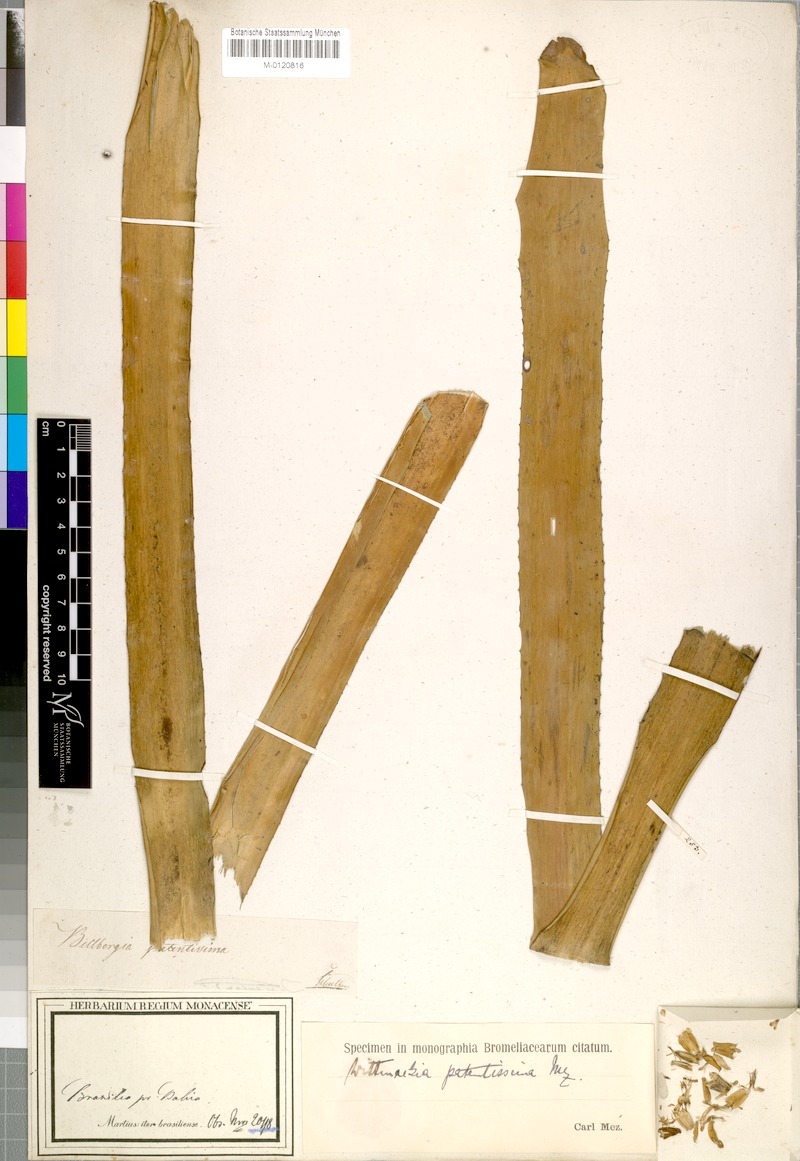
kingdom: Plantae
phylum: Tracheophyta
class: Liliopsida
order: Poales
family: Bromeliaceae
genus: Wittmackia
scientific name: Wittmackia lingulata
